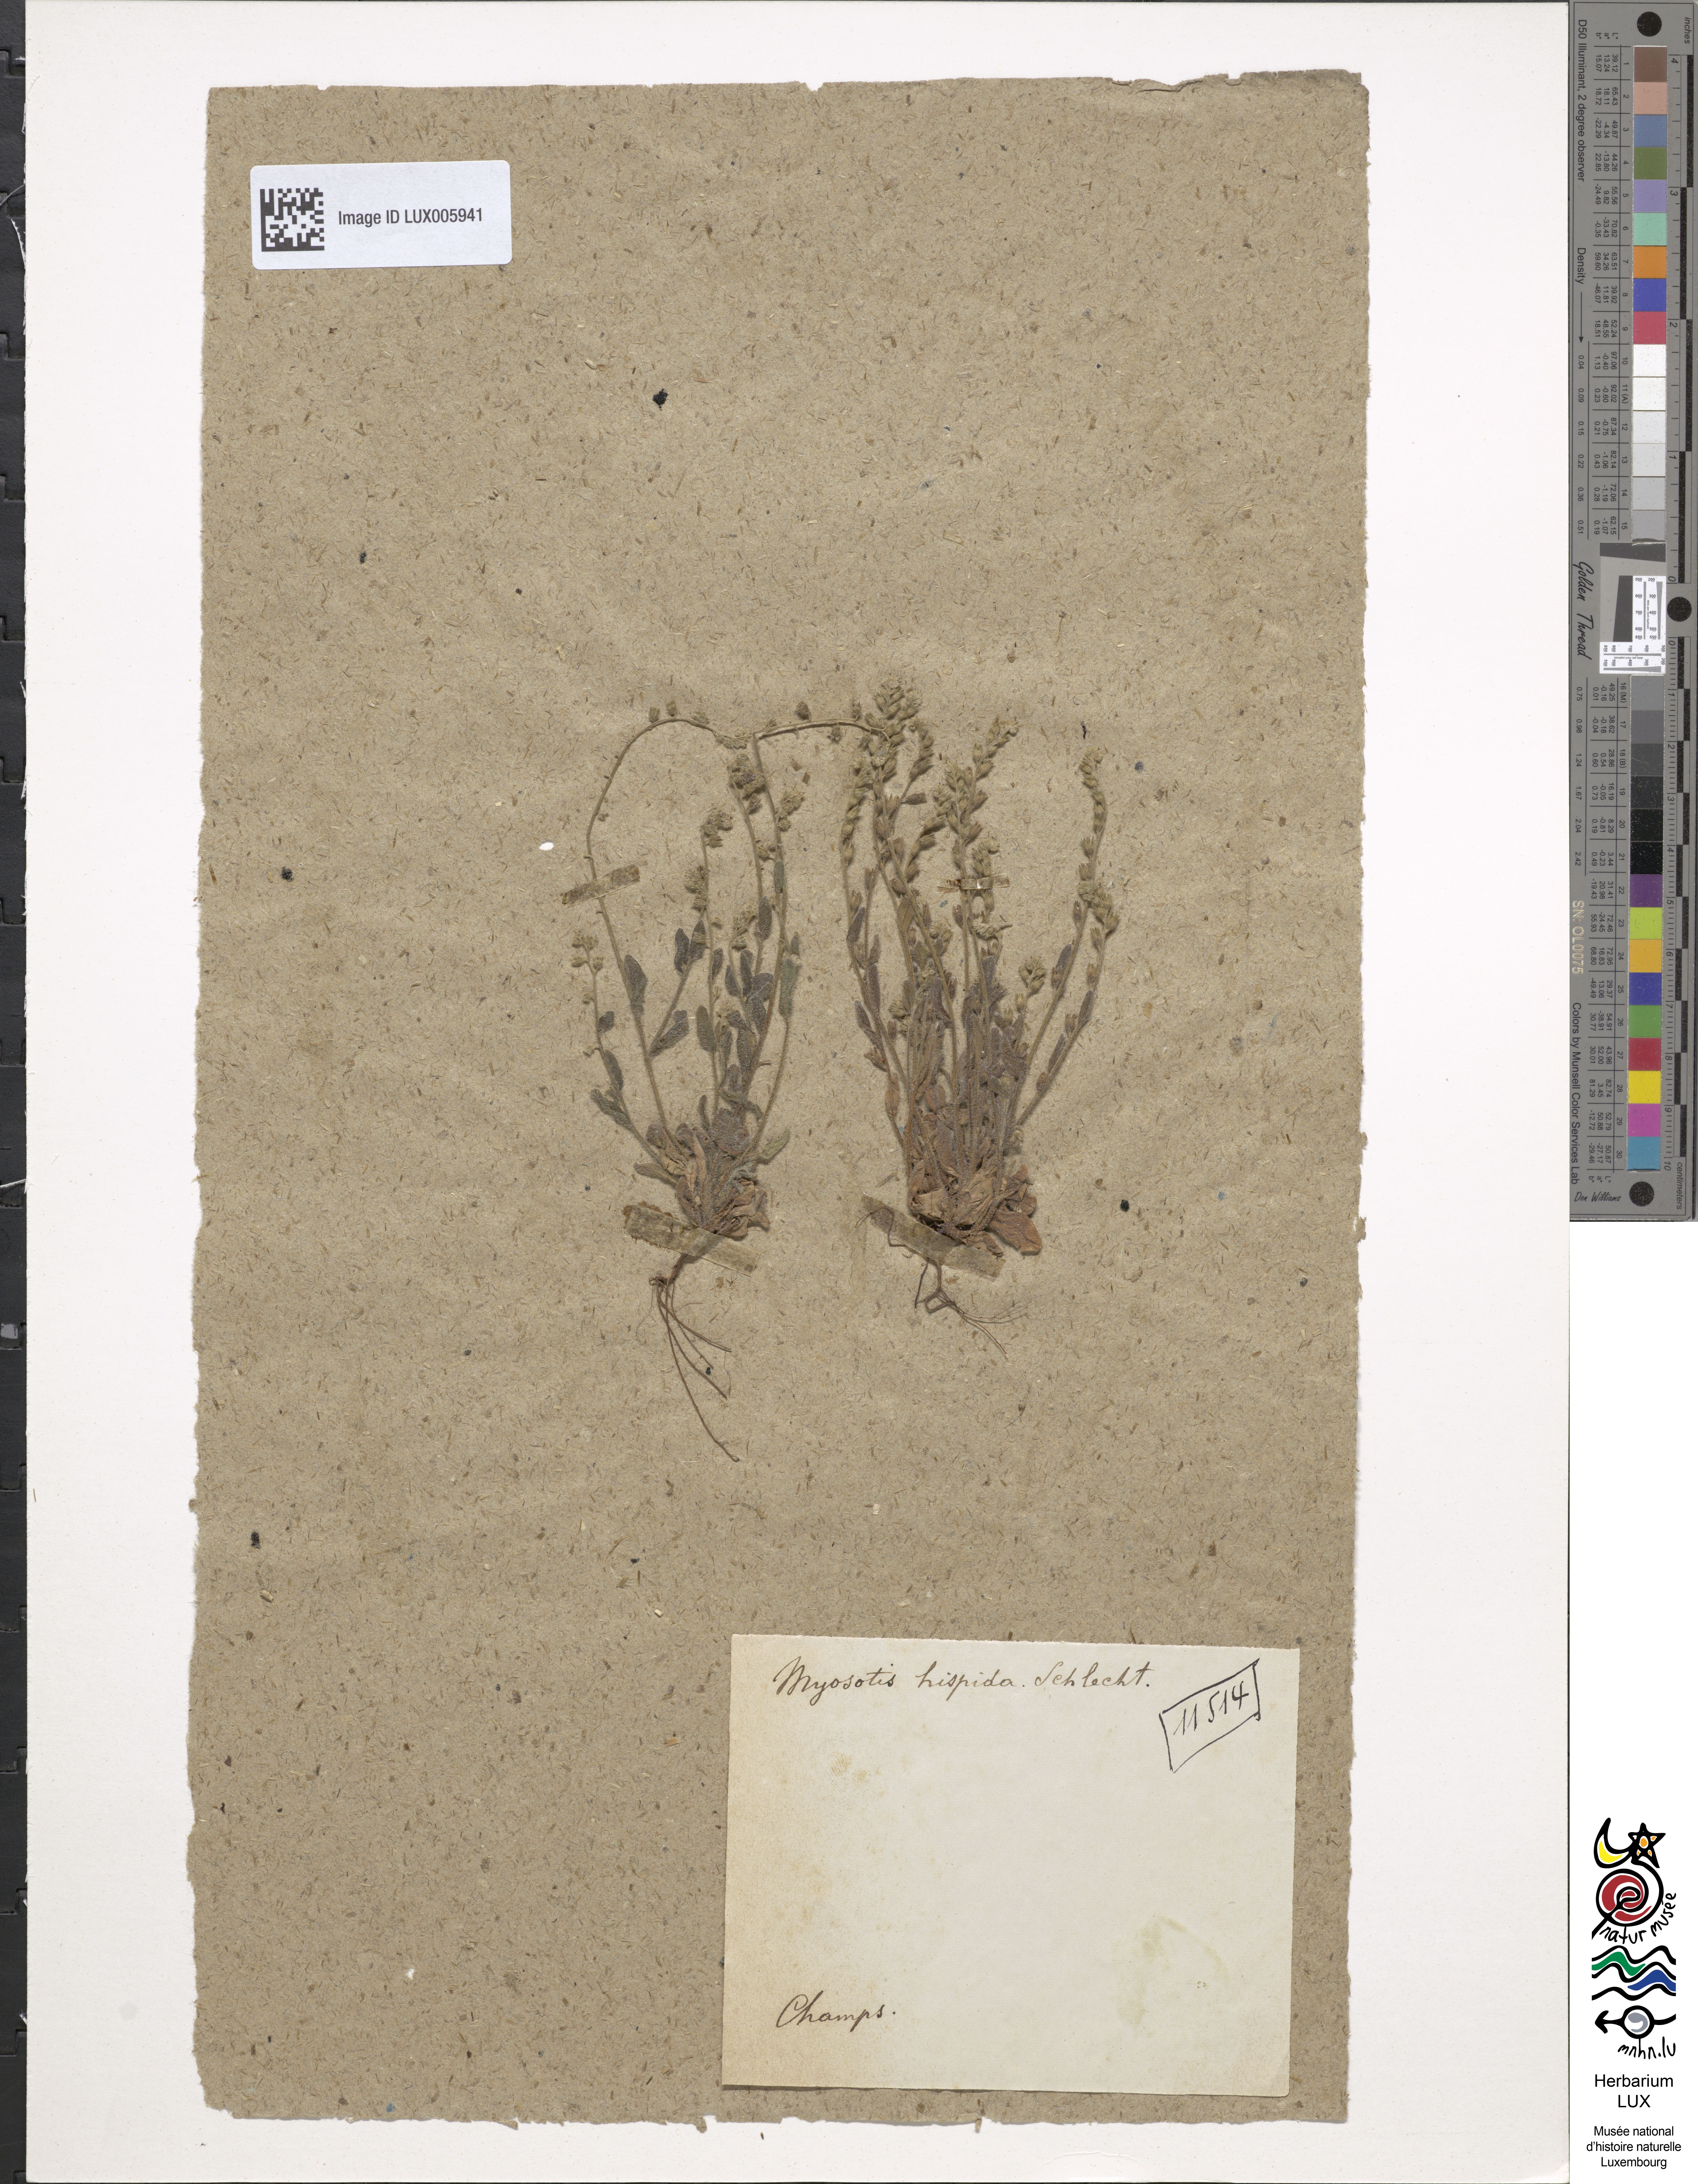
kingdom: Plantae
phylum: Tracheophyta
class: Magnoliopsida
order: Boraginales
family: Boraginaceae
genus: Myosotis
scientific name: Myosotis discolor
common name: Changing forget-me-not
